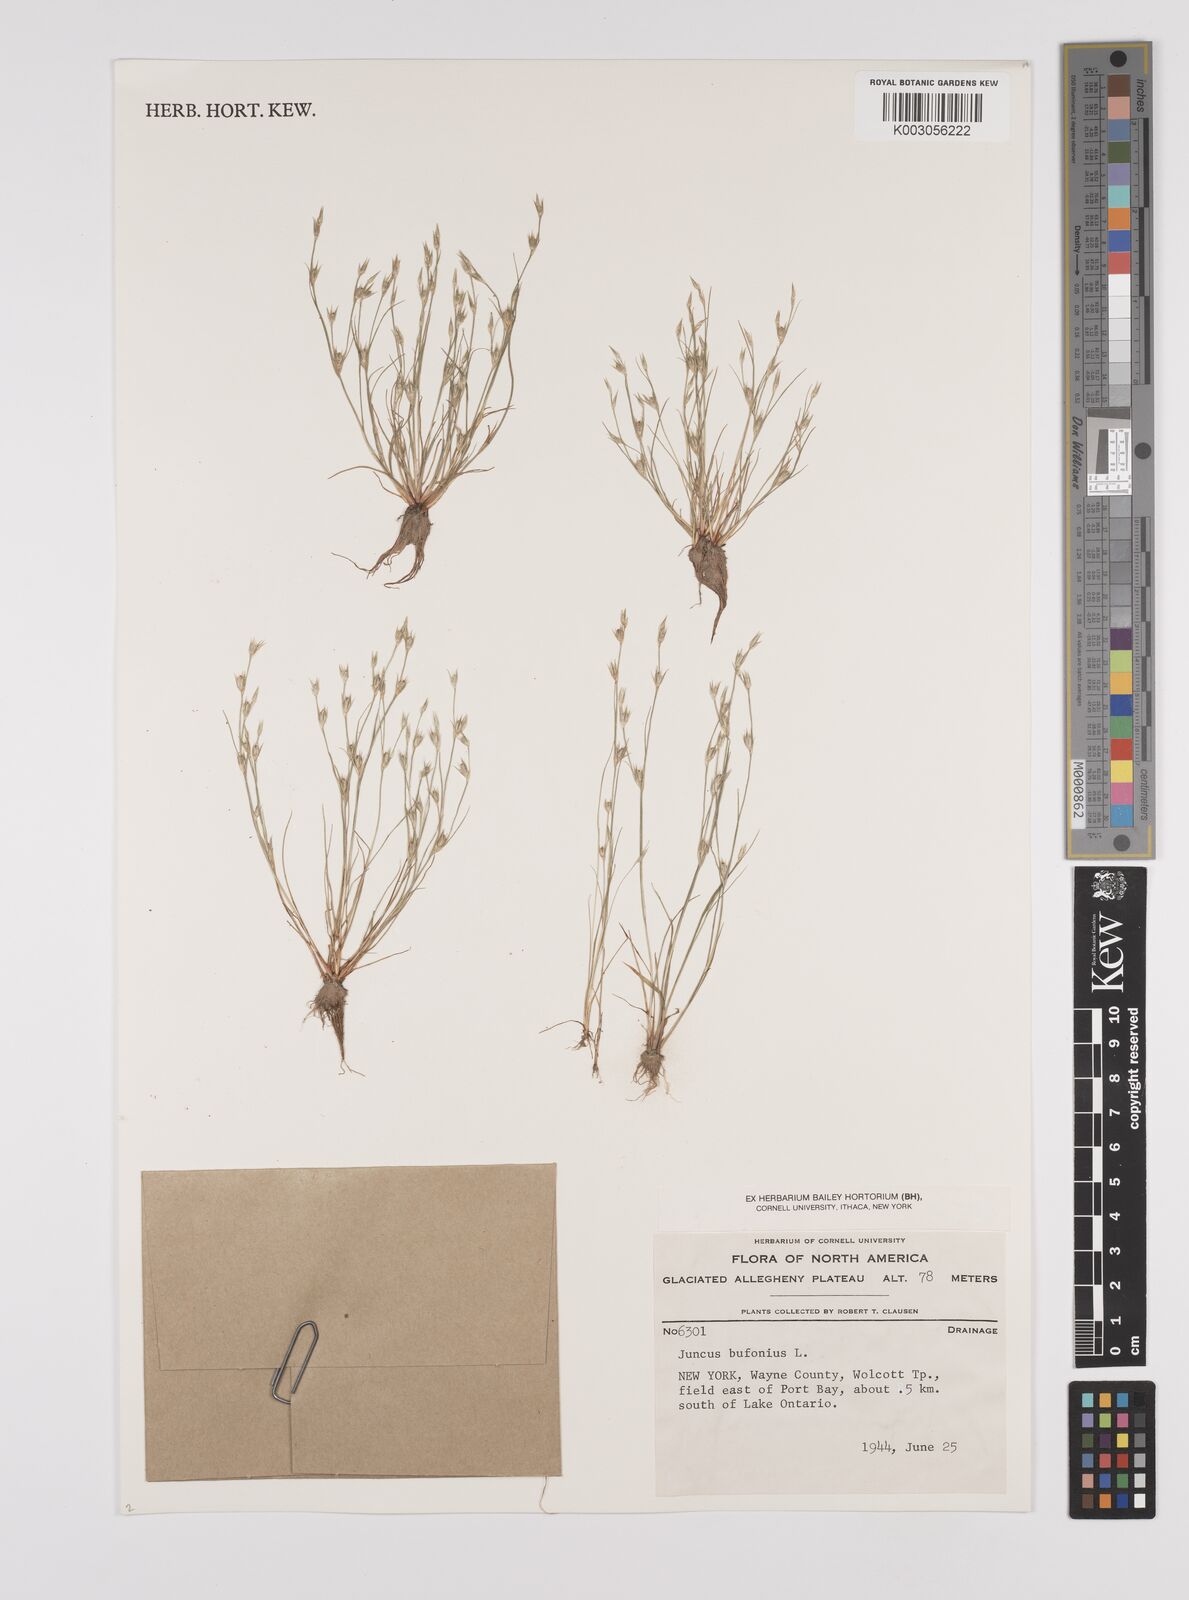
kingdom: Plantae
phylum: Tracheophyta
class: Liliopsida
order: Poales
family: Juncaceae
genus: Juncus
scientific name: Juncus bufonius
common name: Toad rush
